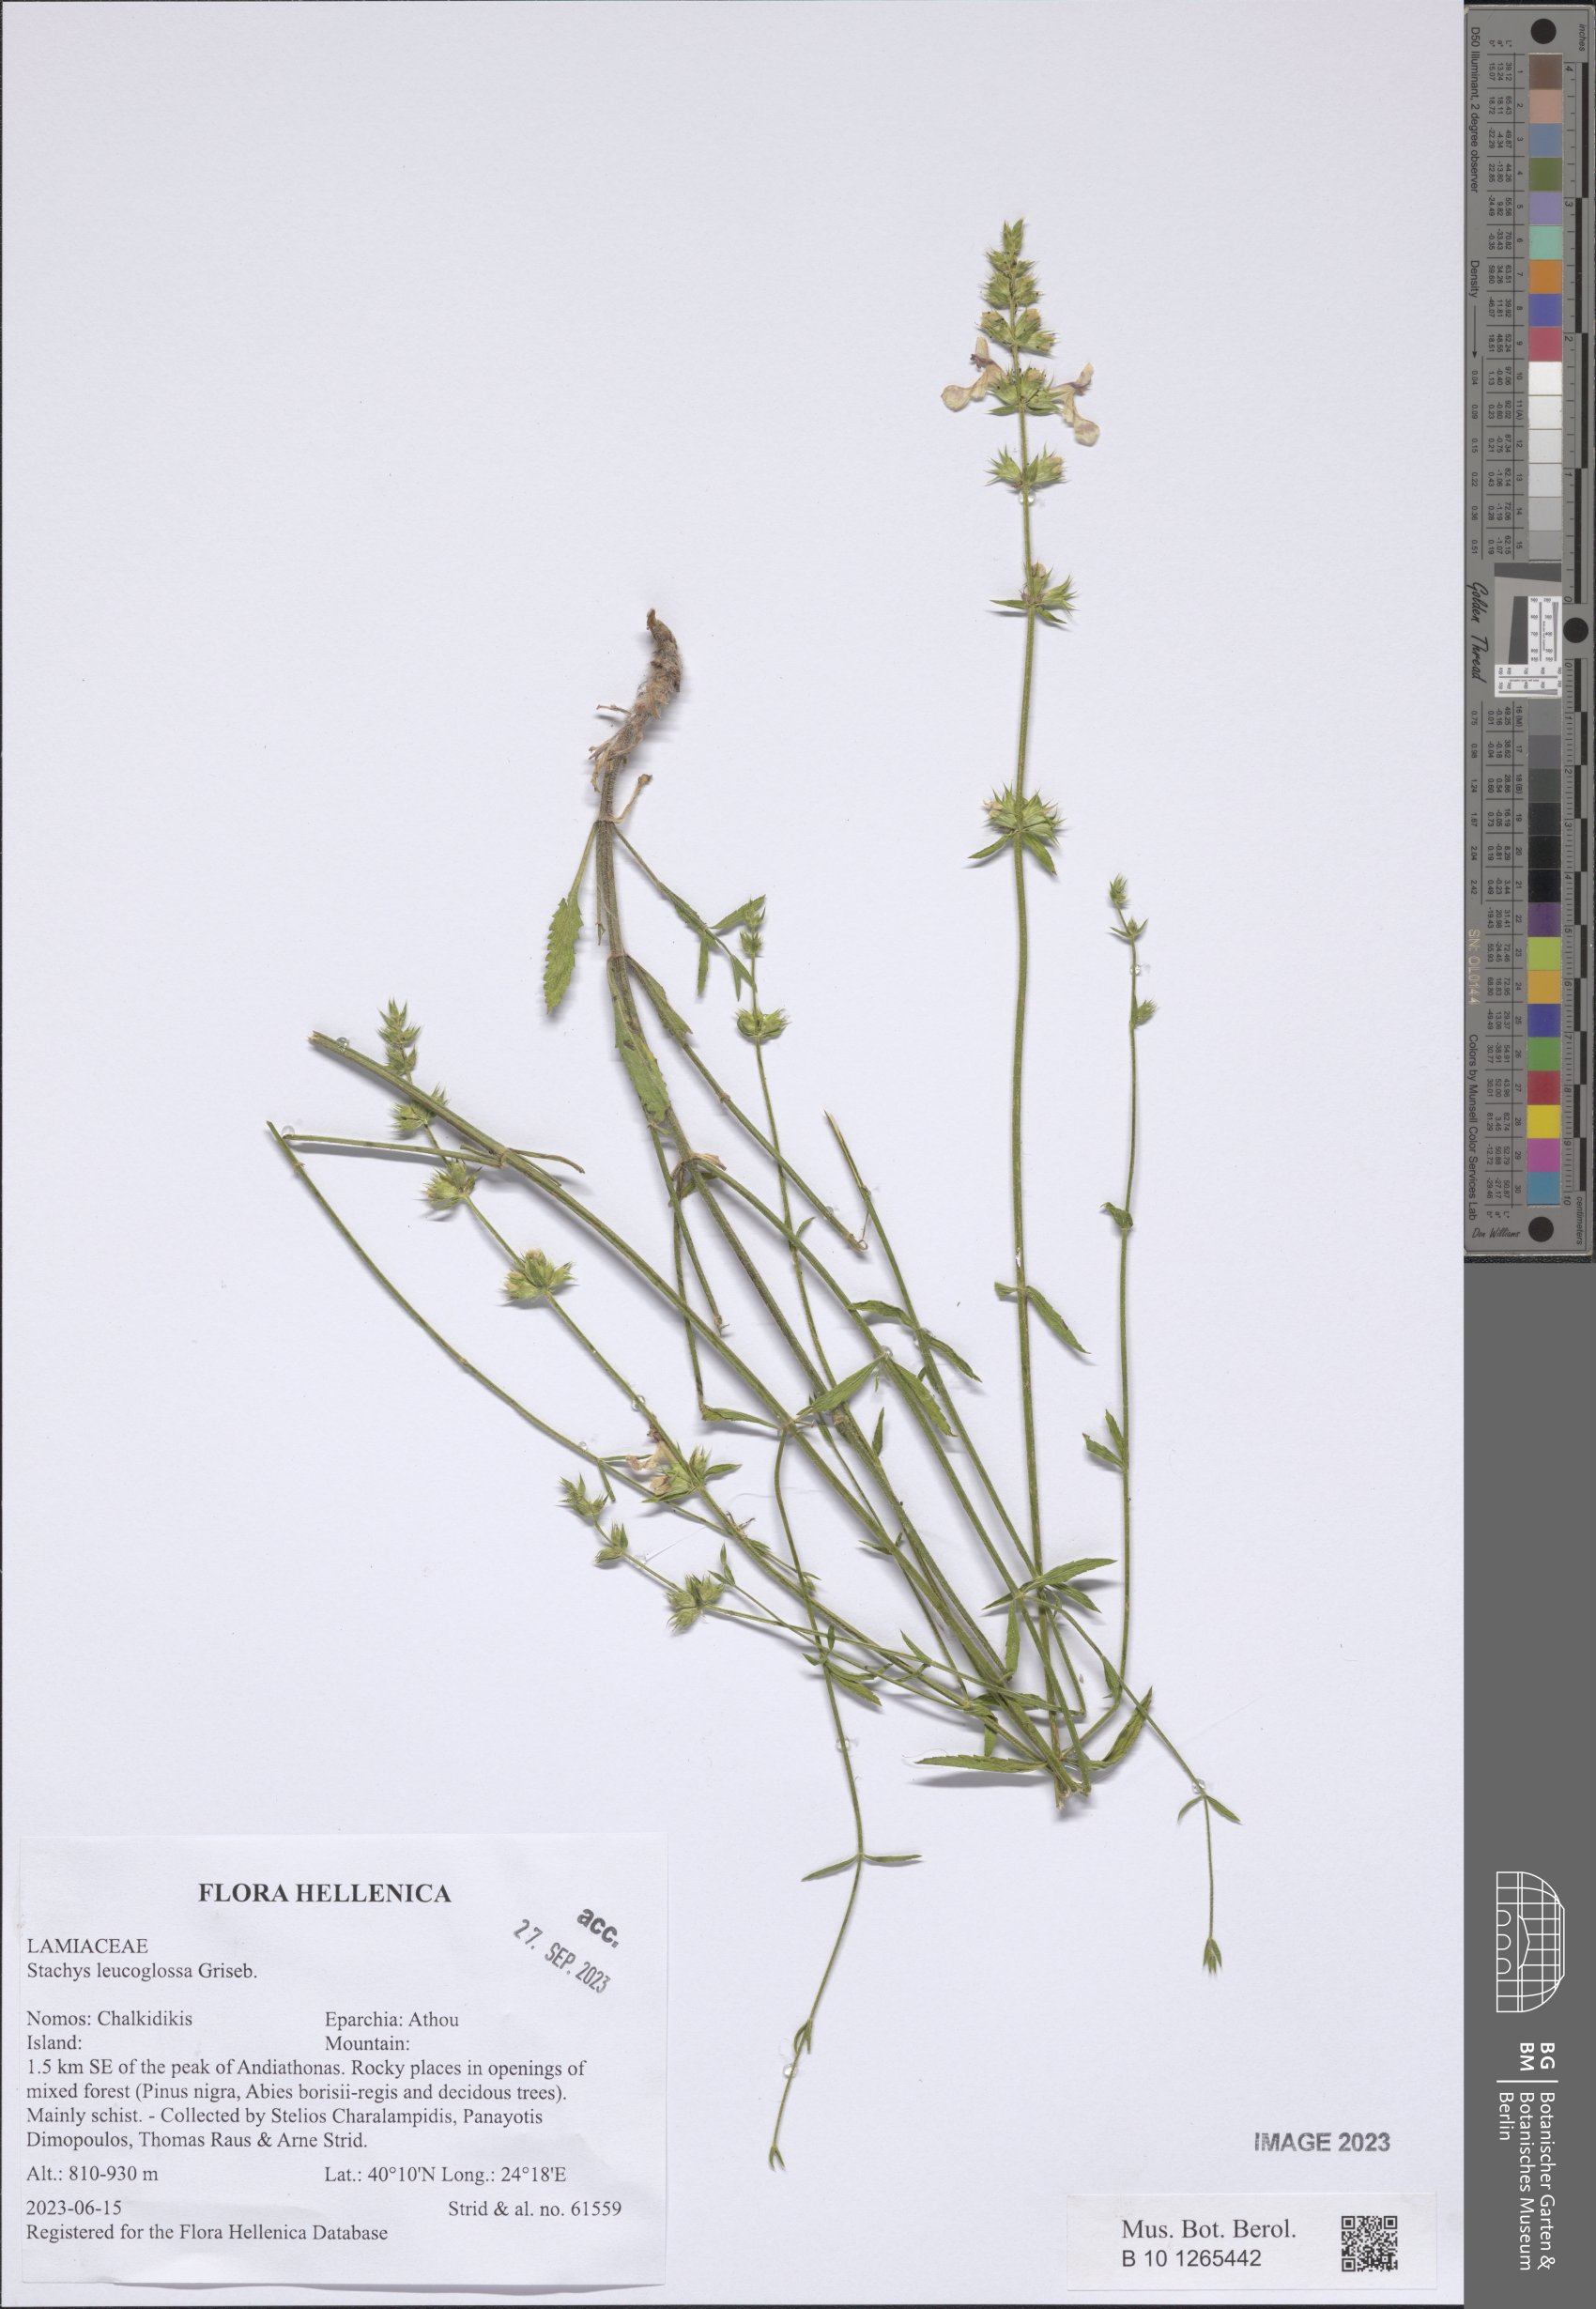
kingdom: Plantae
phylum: Tracheophyta
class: Magnoliopsida
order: Lamiales
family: Lamiaceae
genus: Stachys
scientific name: Stachys leucoglossa
